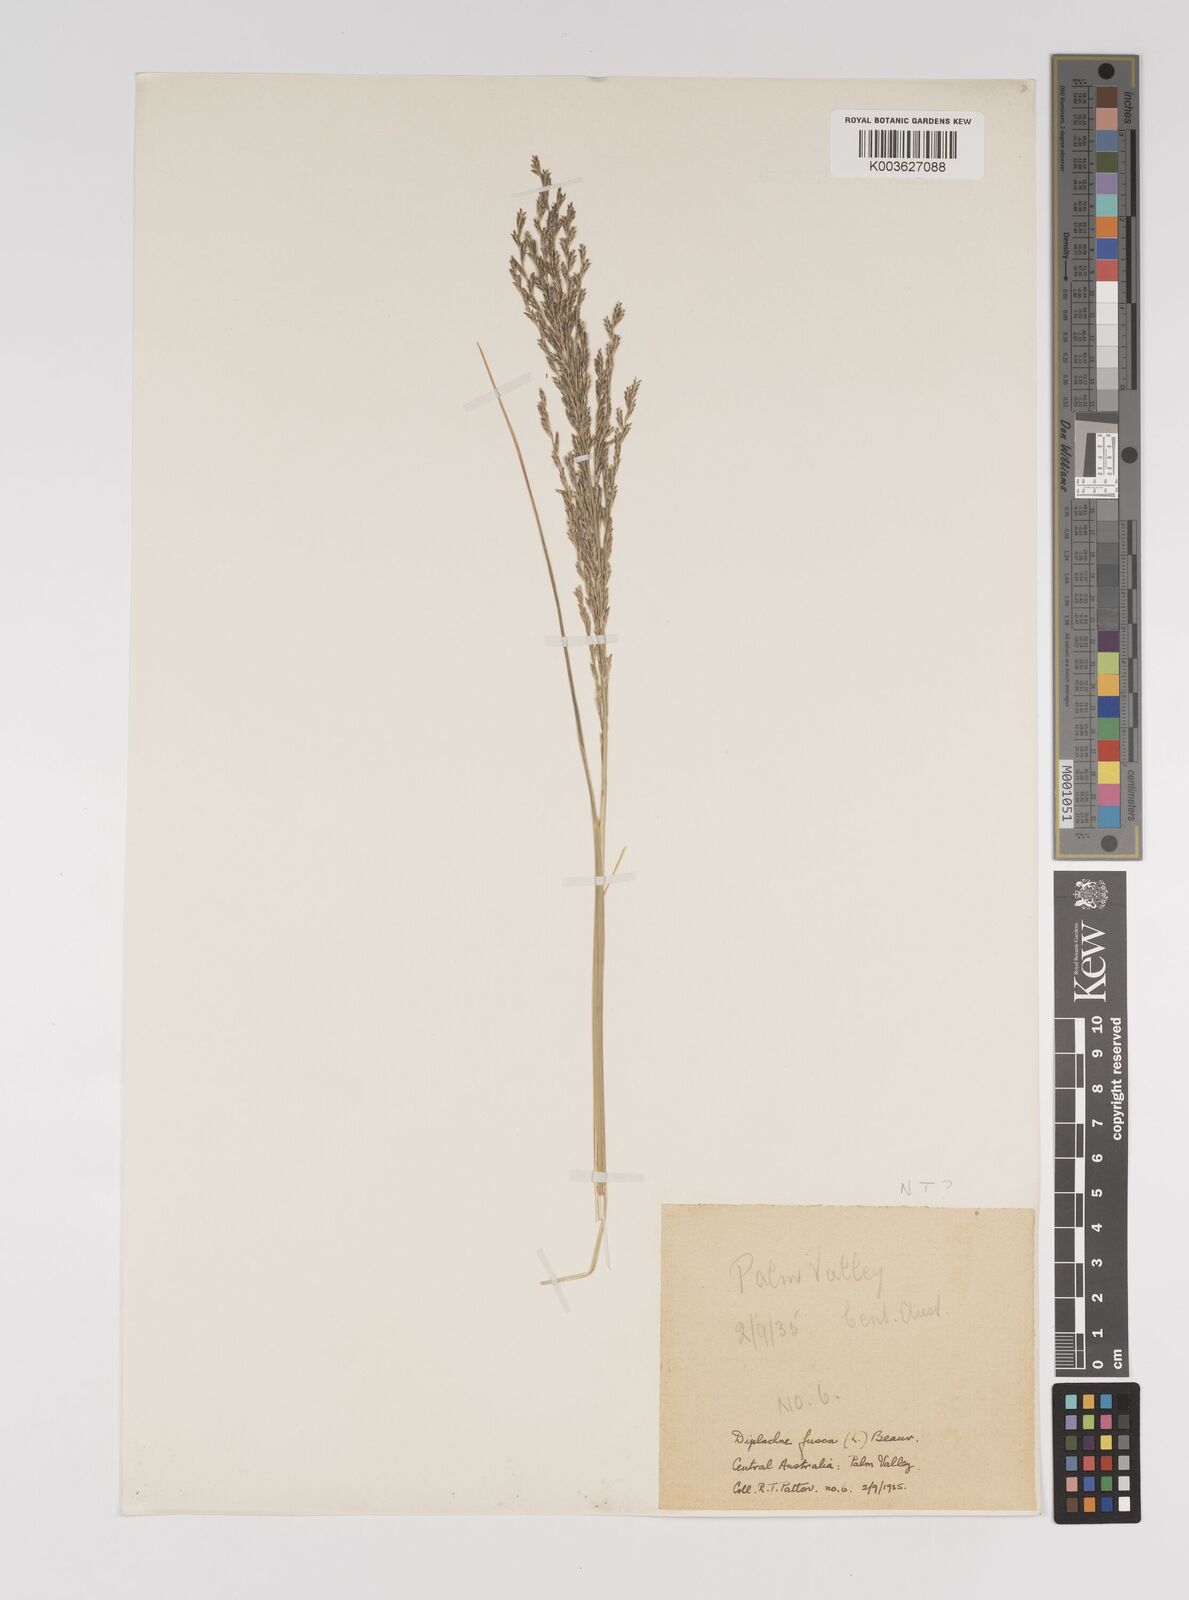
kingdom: Plantae
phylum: Tracheophyta
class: Liliopsida
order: Poales
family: Poaceae
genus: Diplachne
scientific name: Diplachne fusca
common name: Brown beetle grass
